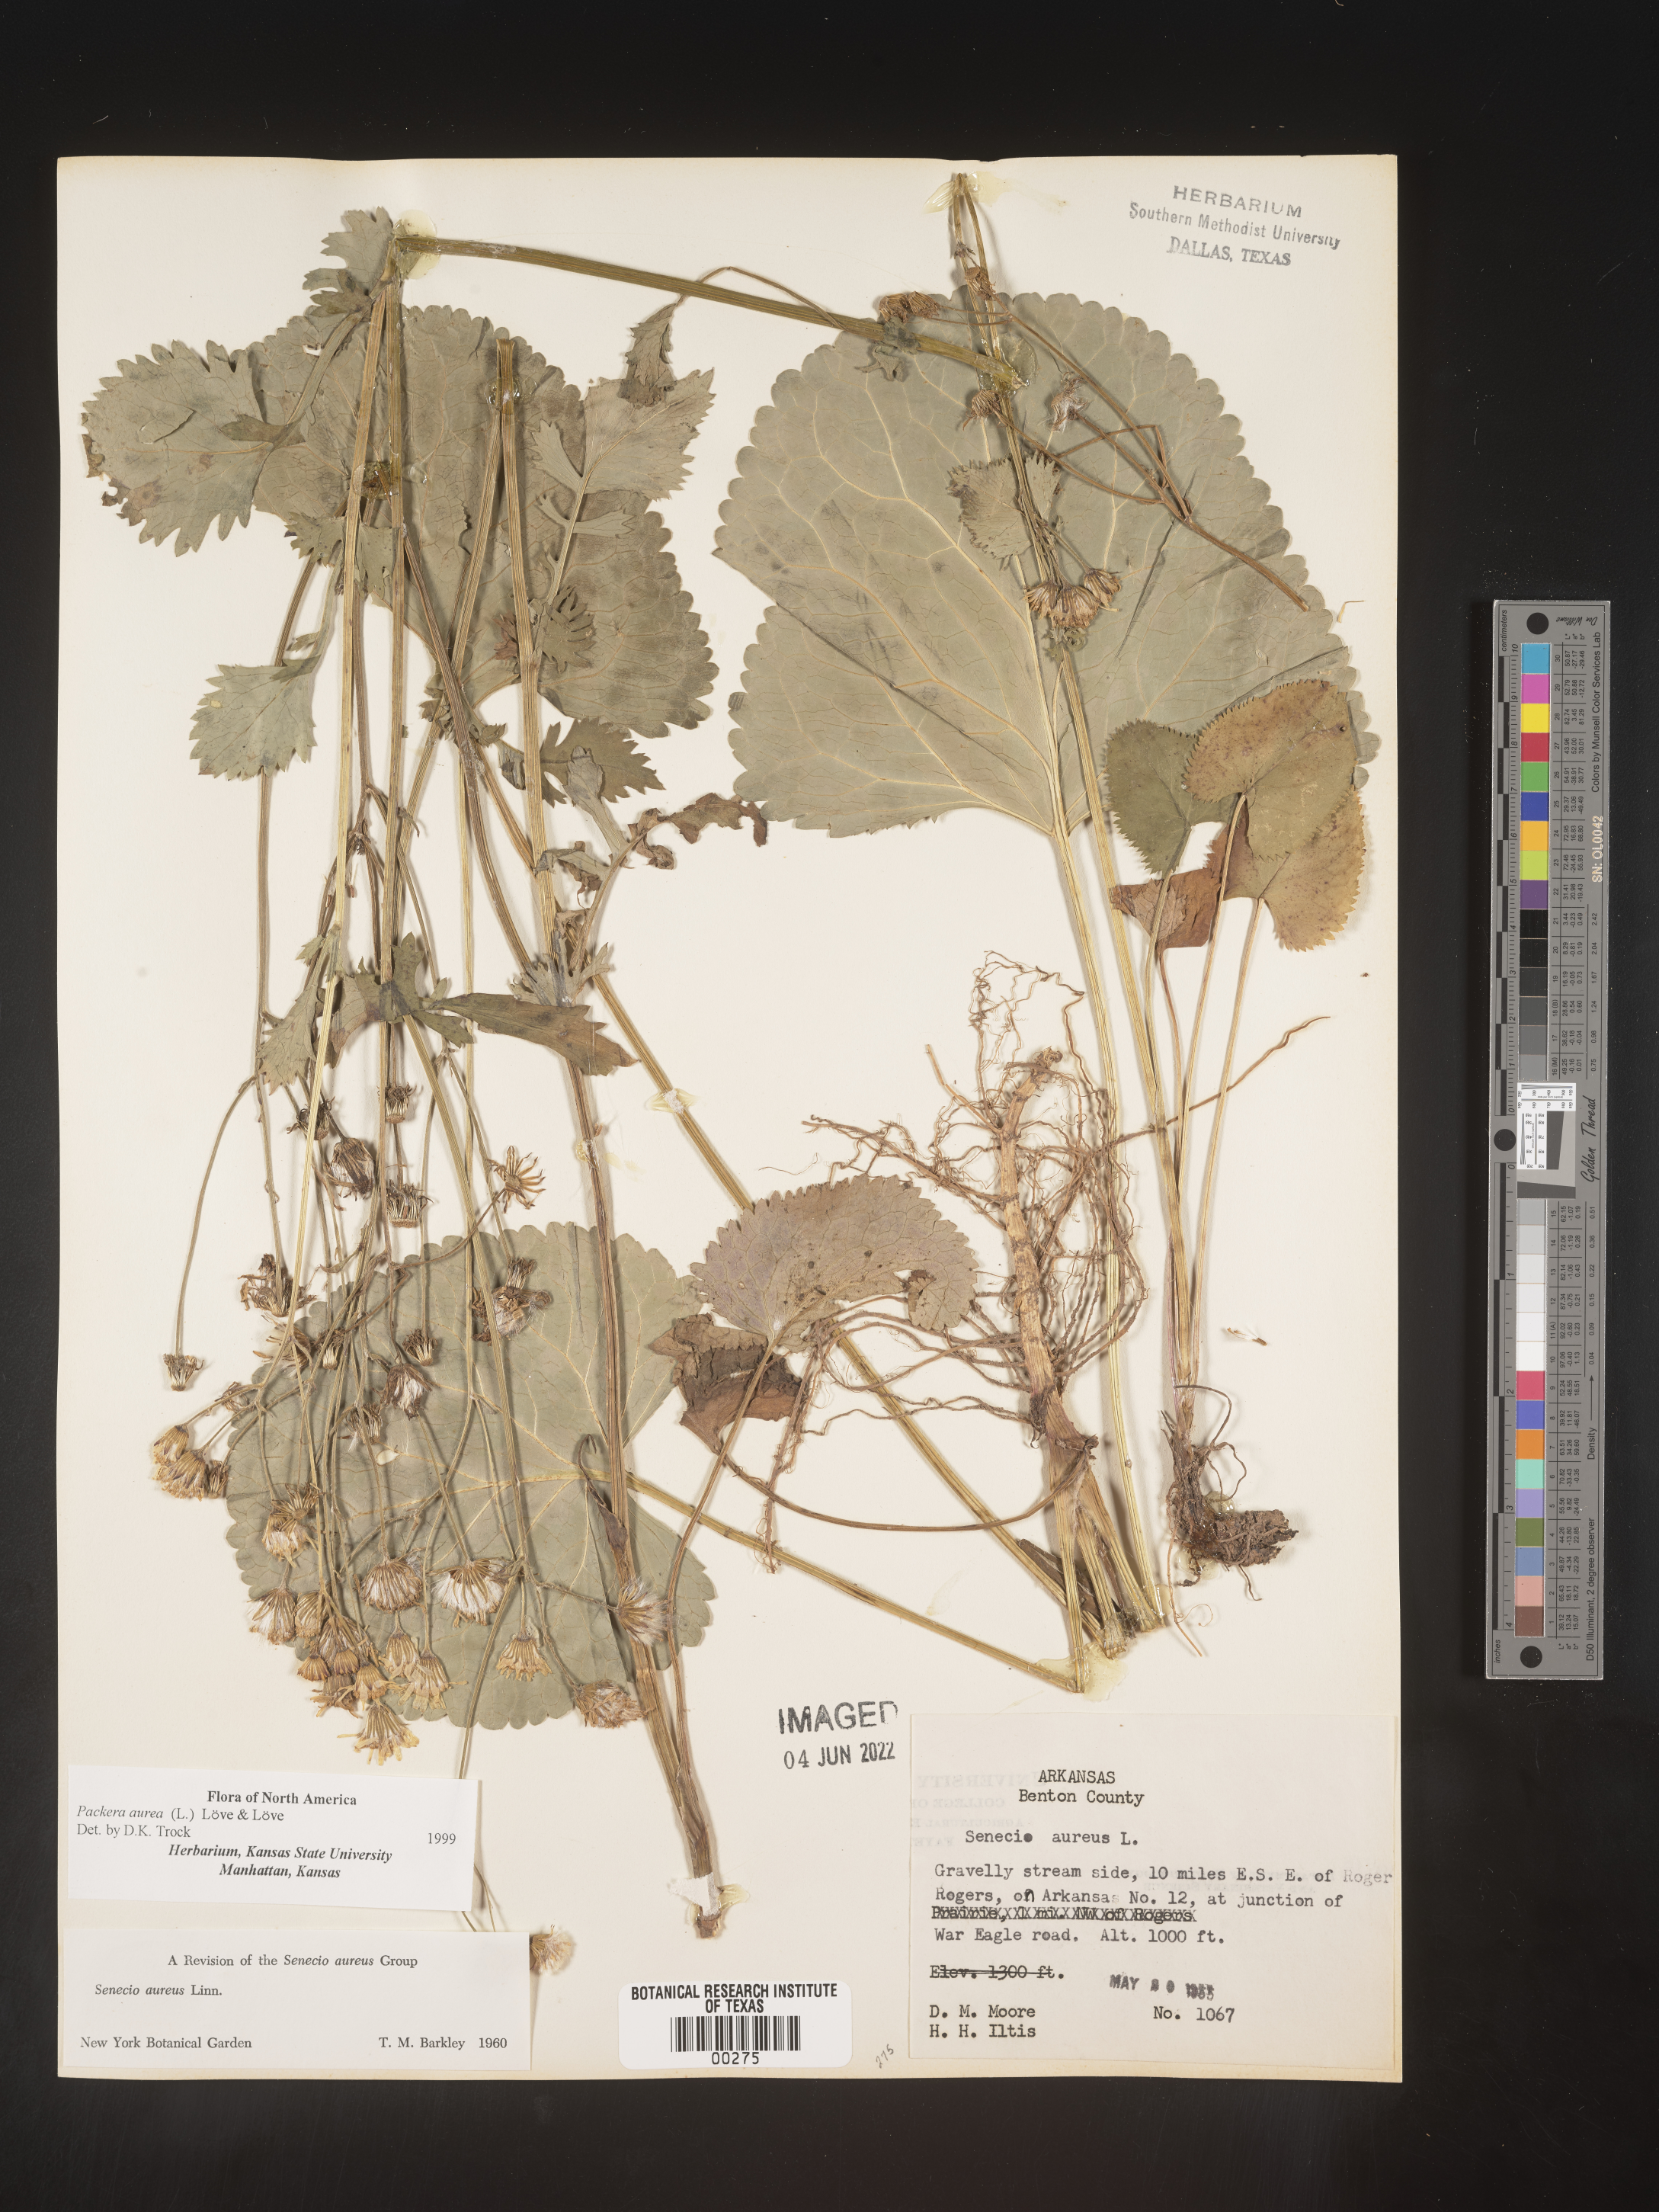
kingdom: Plantae
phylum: Tracheophyta
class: Magnoliopsida
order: Asterales
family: Asteraceae
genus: Packera
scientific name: Packera aurea
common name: Golden groundsel
